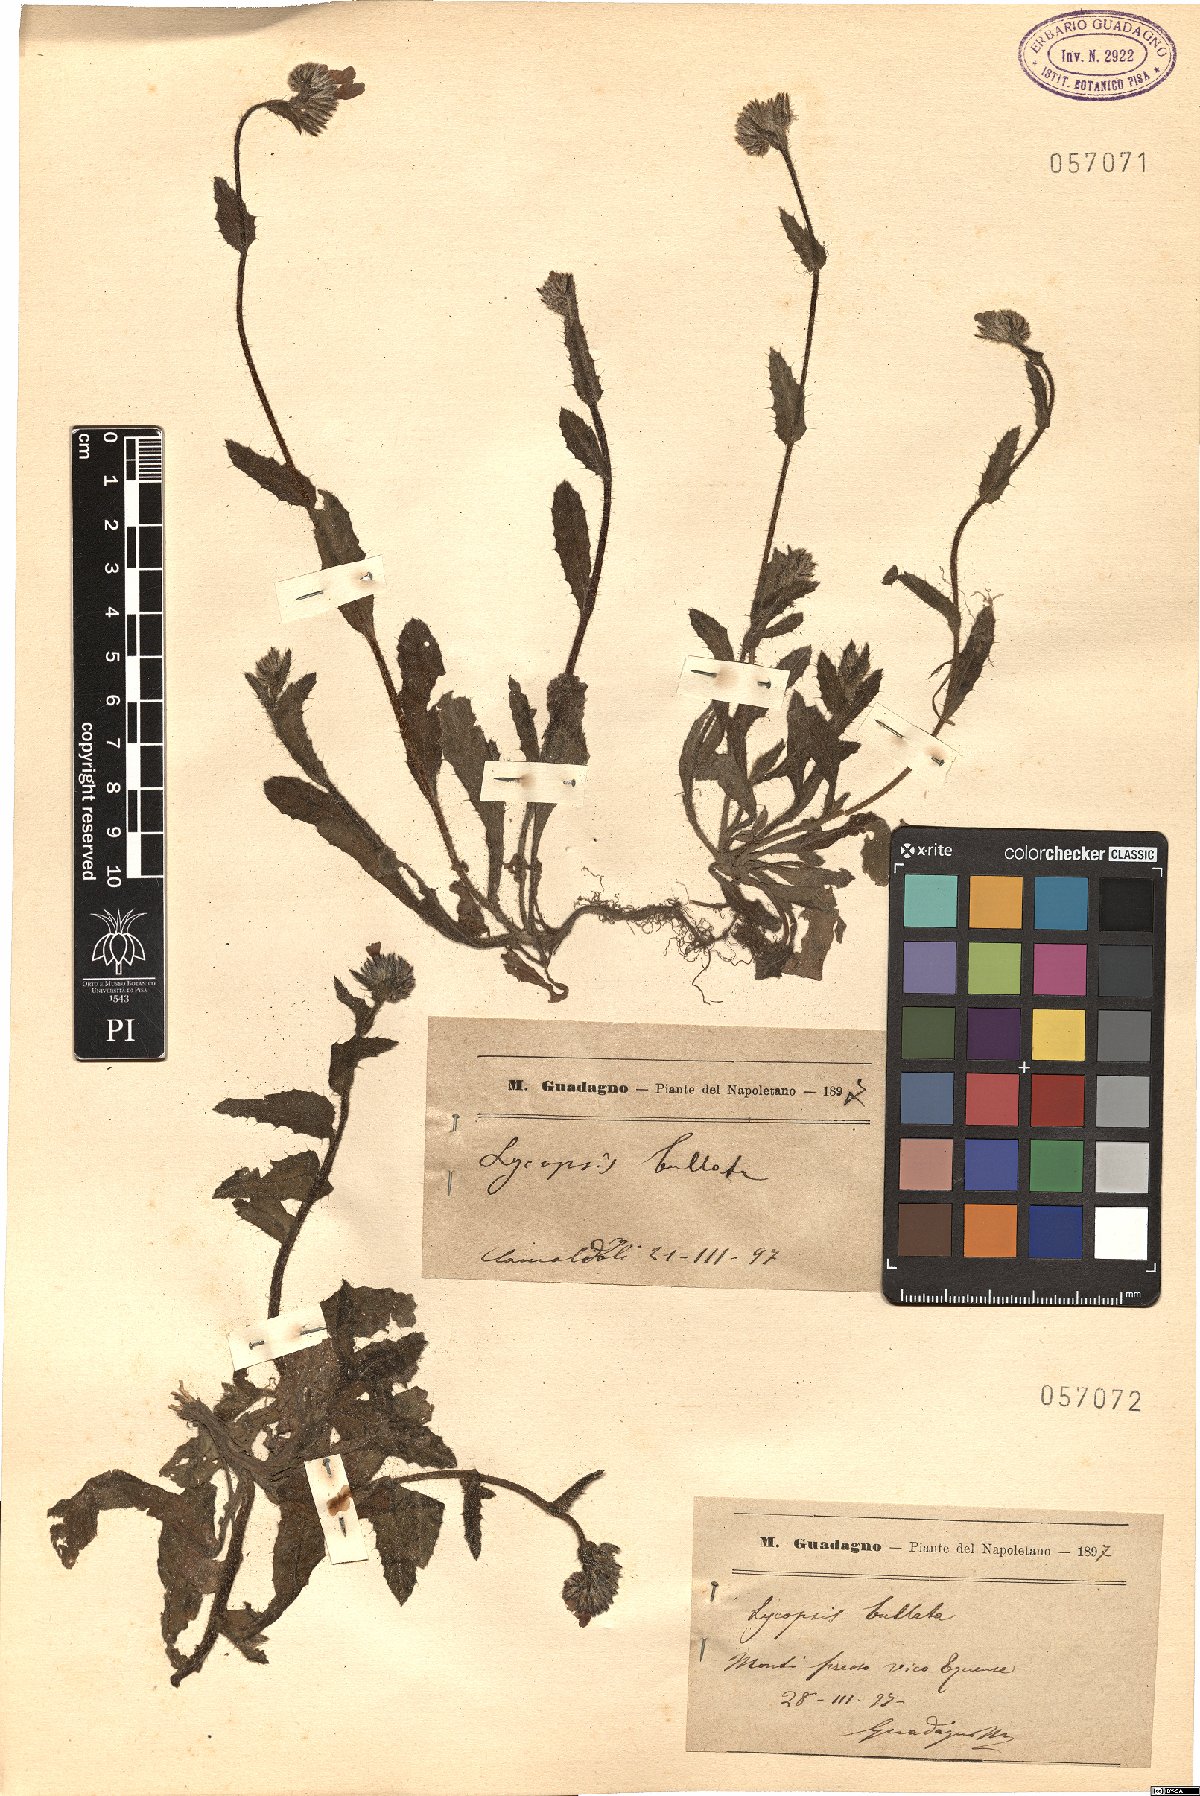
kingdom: Plantae
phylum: Tracheophyta
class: Magnoliopsida
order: Boraginales
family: Boraginaceae
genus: Anchusella
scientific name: Anchusella variegata
